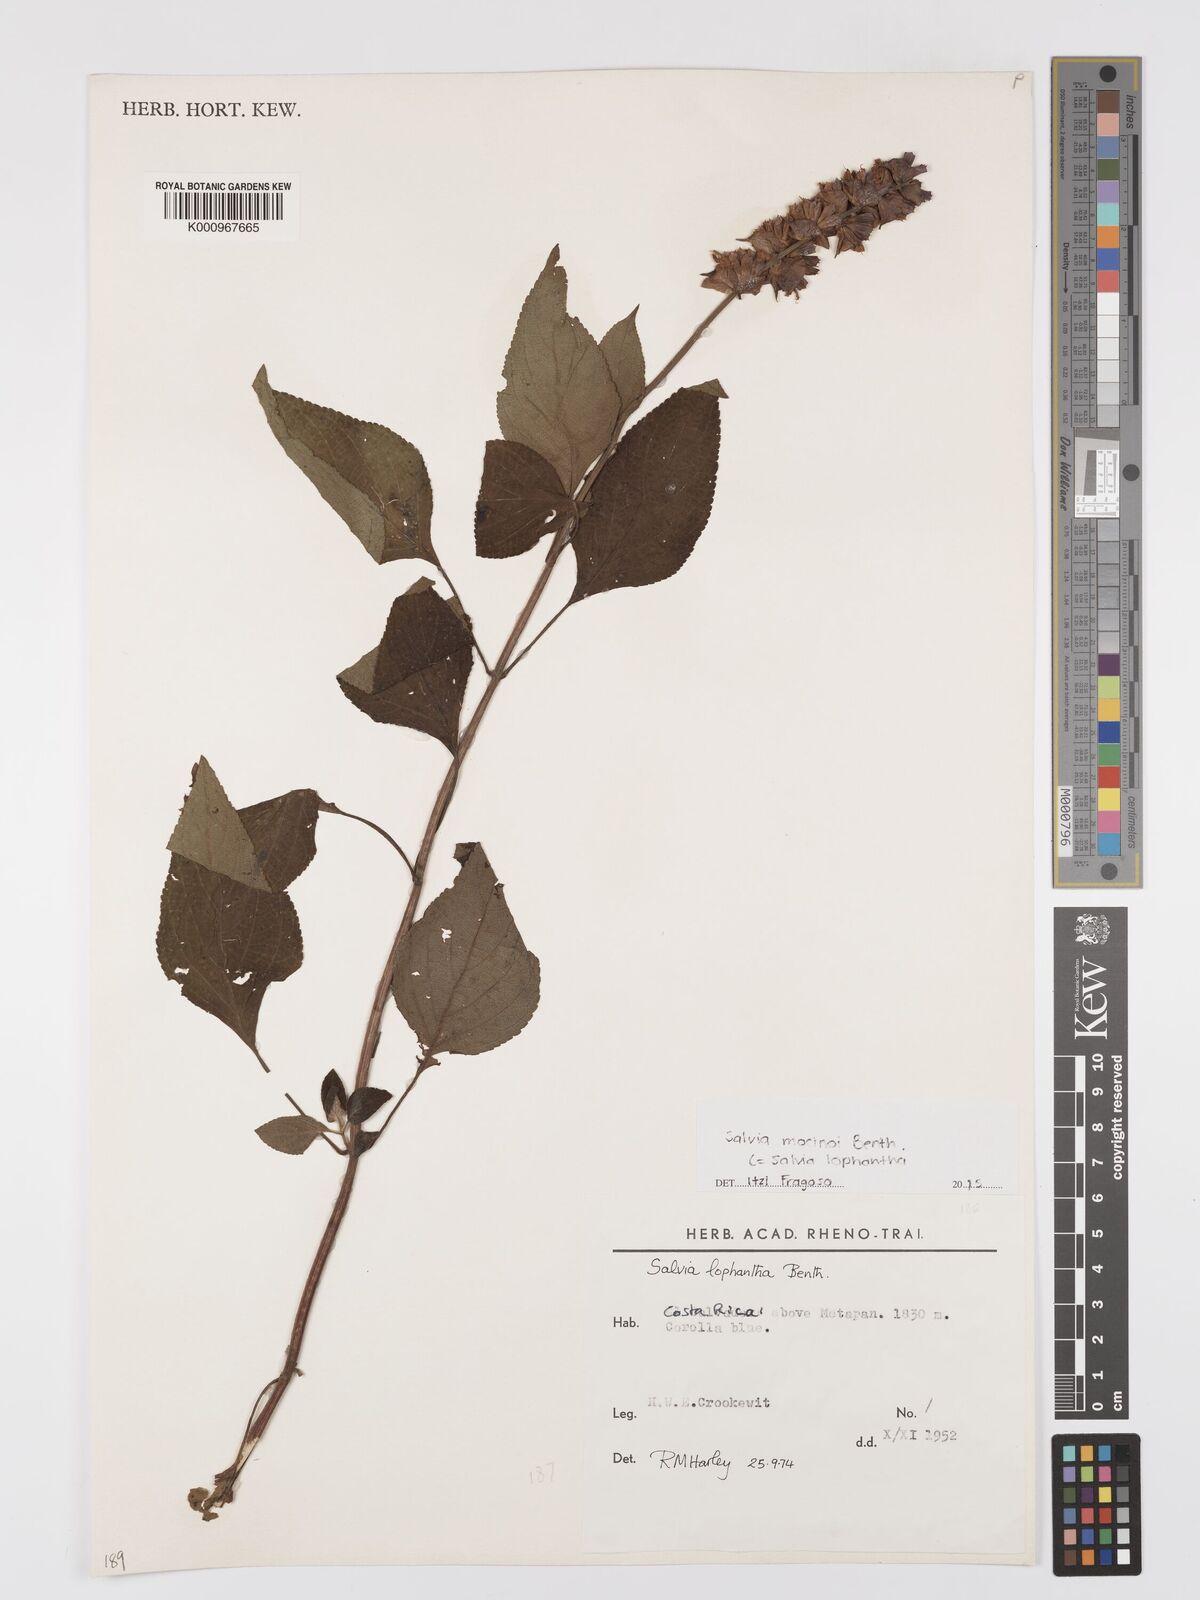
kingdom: Plantae
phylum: Tracheophyta
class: Magnoliopsida
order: Lamiales
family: Lamiaceae
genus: Salvia
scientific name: Salvia mocinoi
